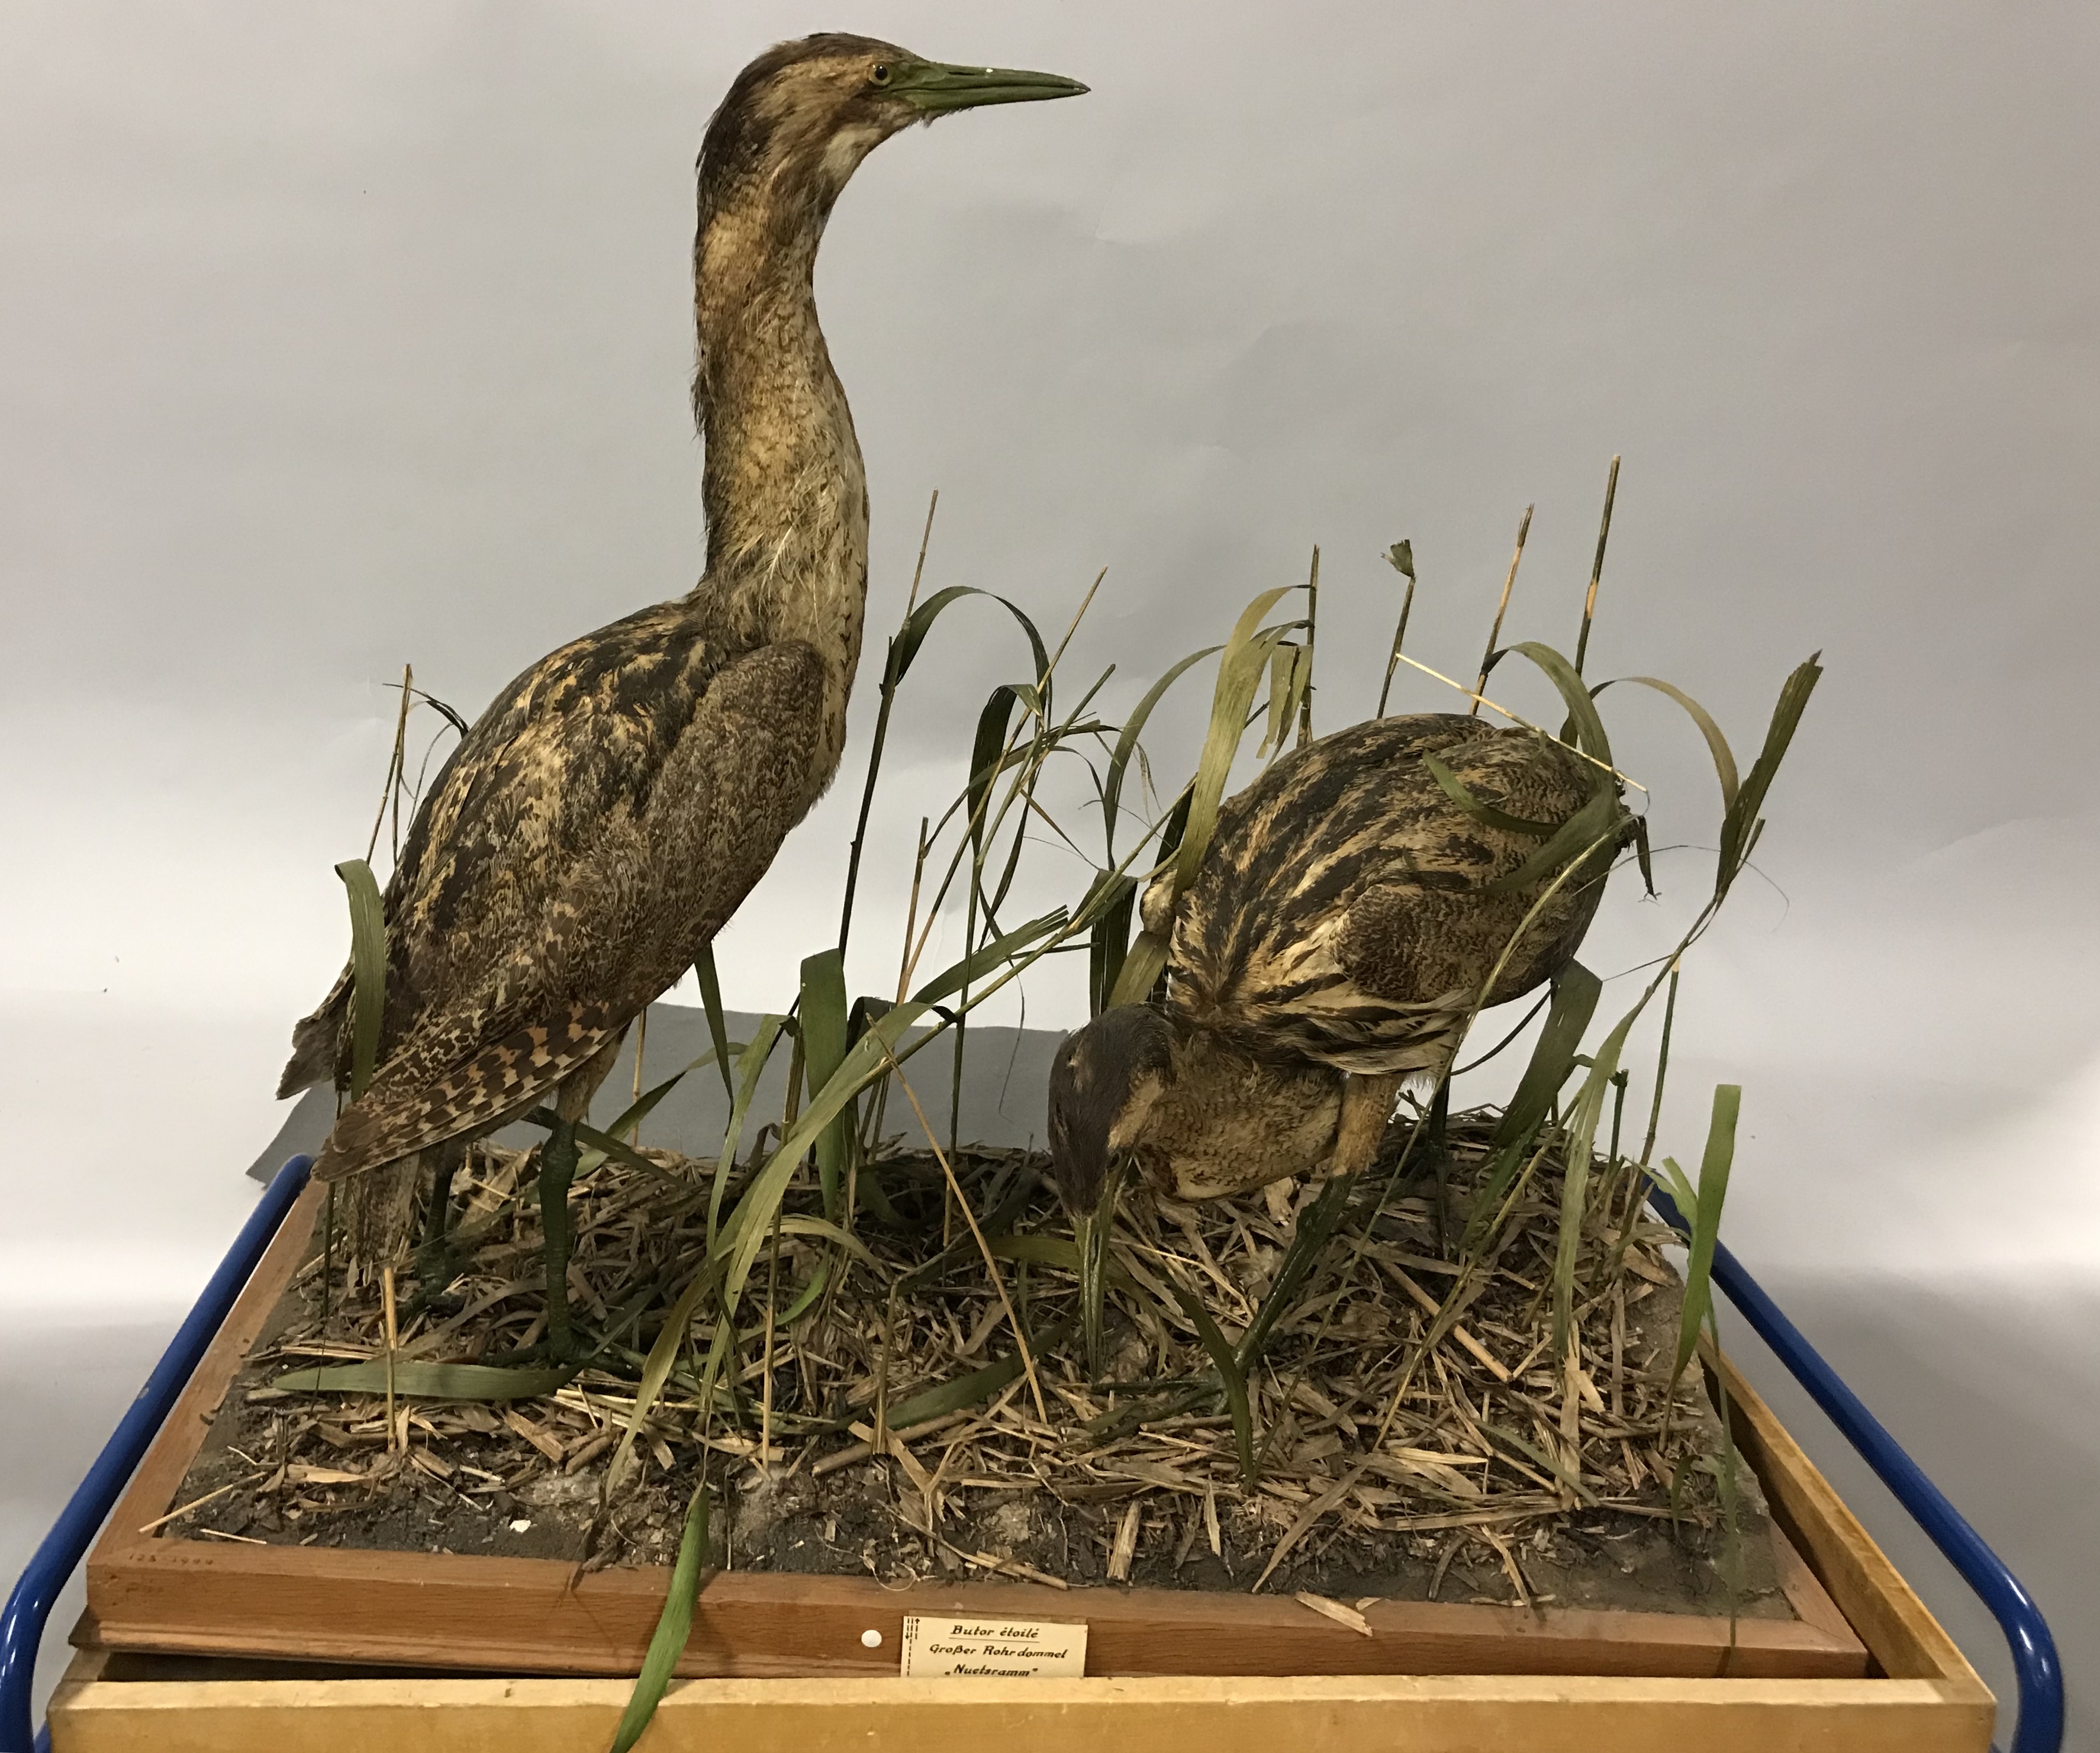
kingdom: Animalia
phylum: Chordata
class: Aves
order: Pelecaniformes
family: Ardeidae
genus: Botaurus
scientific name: Botaurus stellaris
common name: Eurasian bittern
